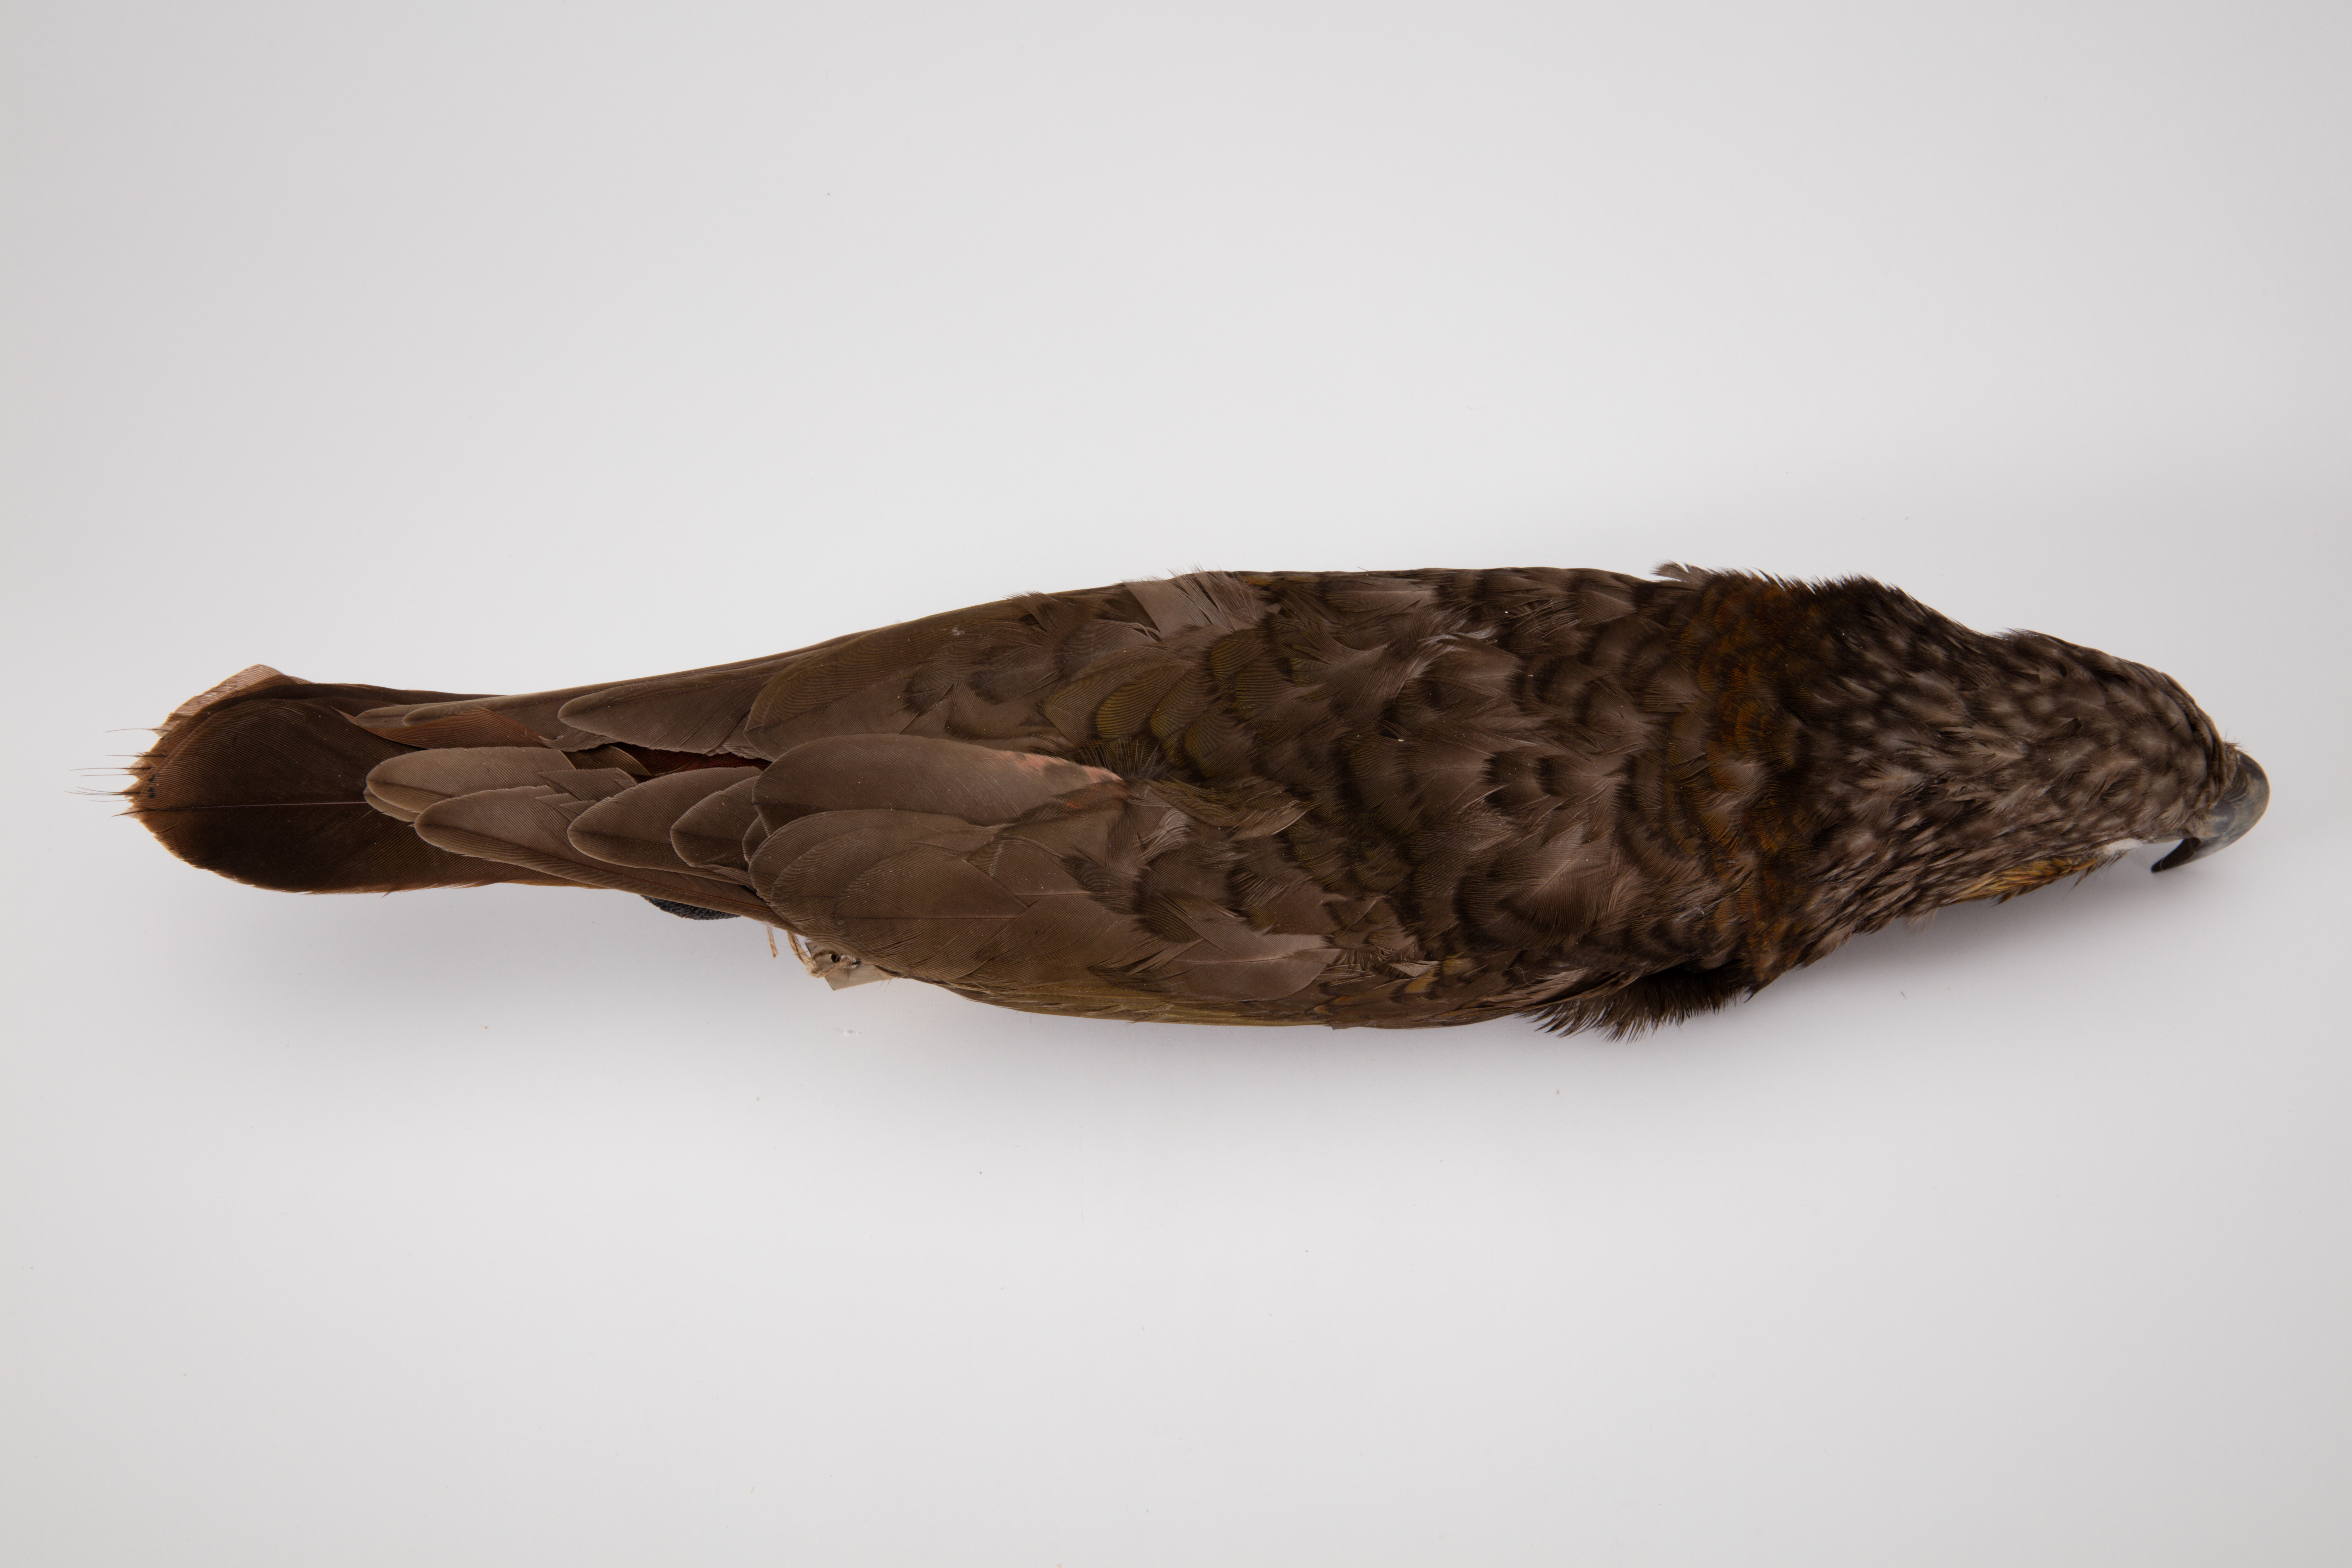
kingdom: Animalia
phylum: Chordata
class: Aves
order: Psittaciformes
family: Psittacidae
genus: Nestor
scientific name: Nestor meridionalis
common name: New zealand kaka
